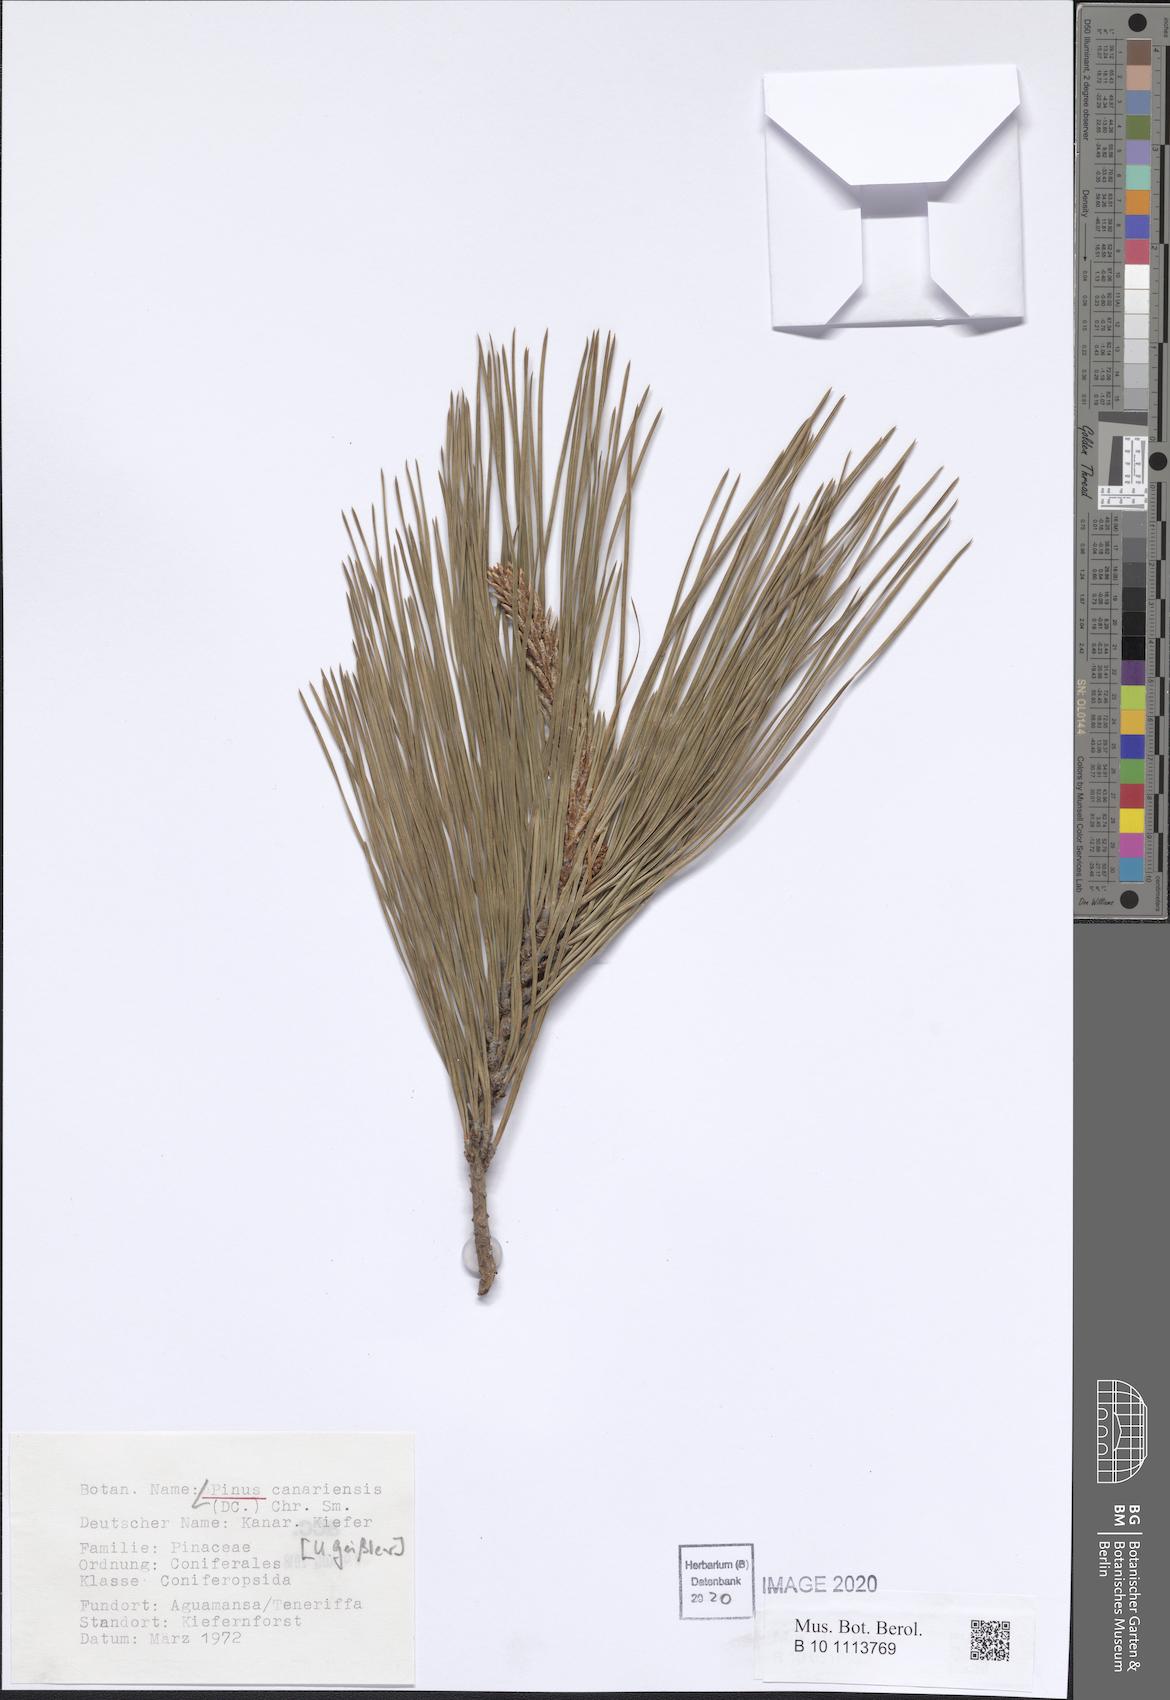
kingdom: Plantae
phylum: Tracheophyta
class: Pinopsida
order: Pinales
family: Pinaceae
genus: Pinus
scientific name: Pinus canariensis
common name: Canary islands pine
